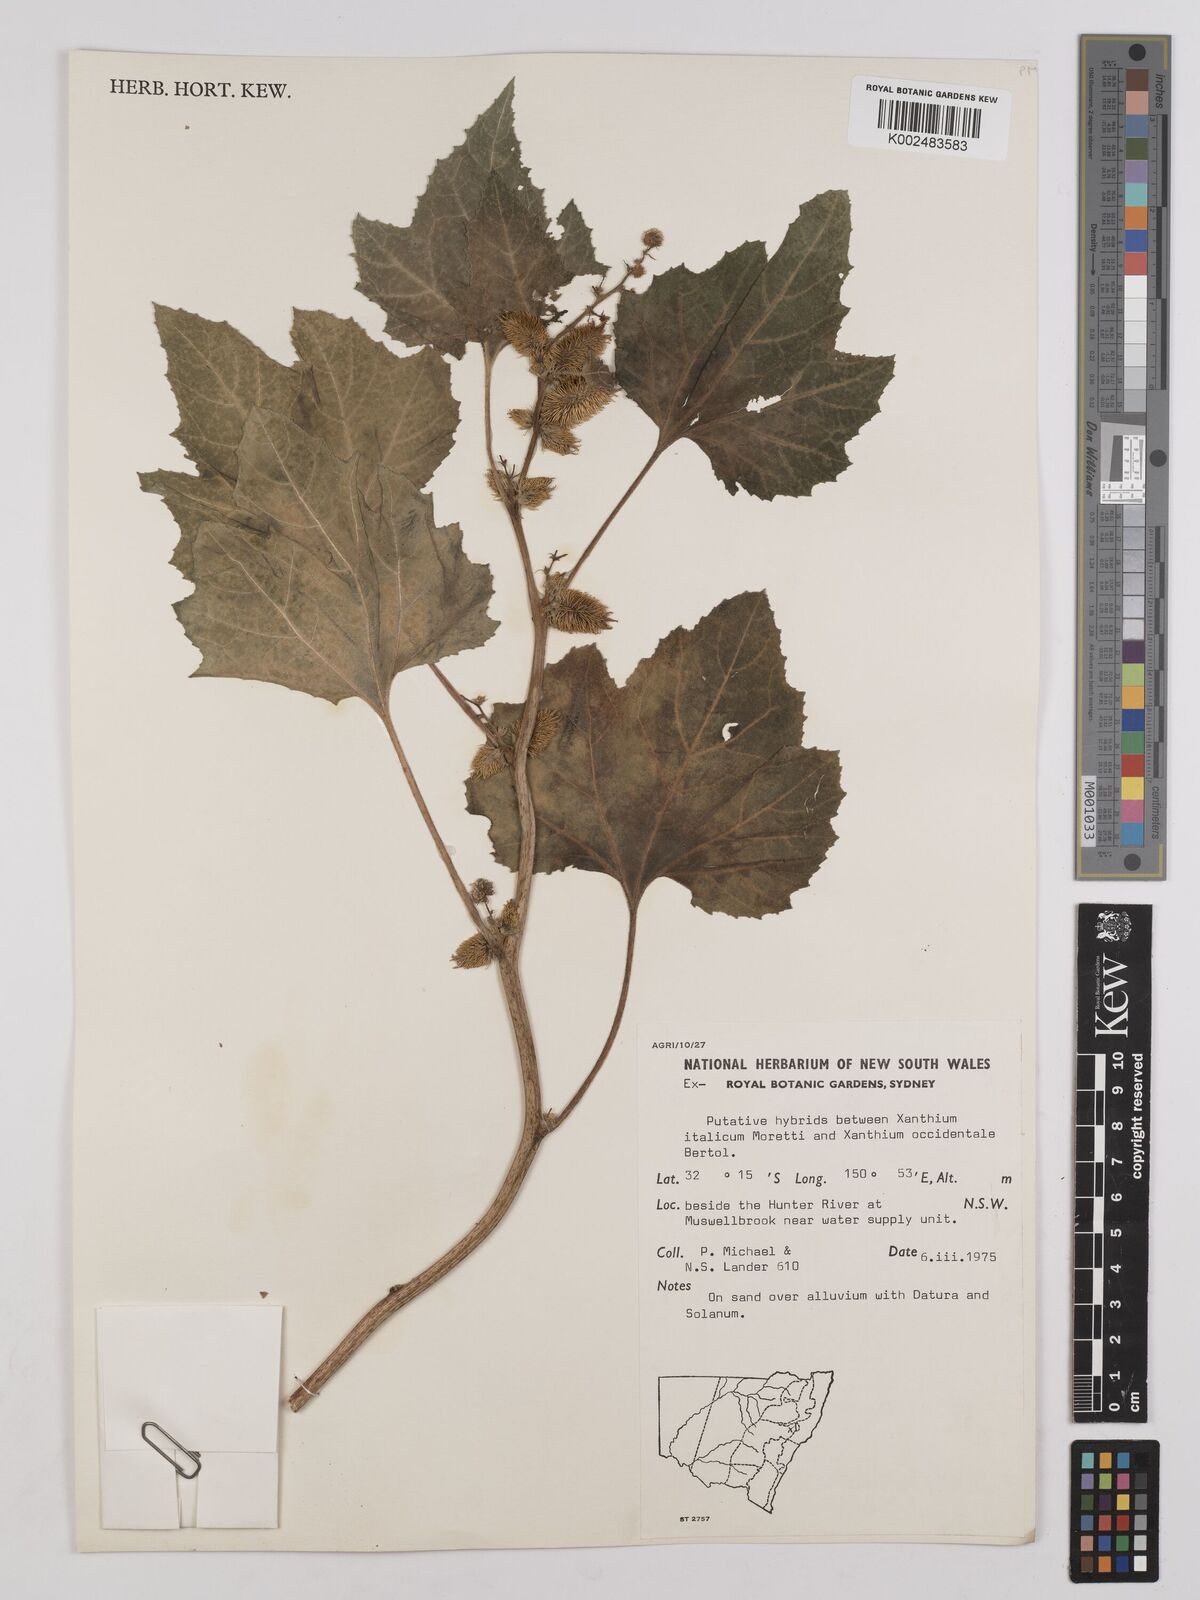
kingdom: Plantae
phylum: Tracheophyta
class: Magnoliopsida
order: Asterales
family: Asteraceae
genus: Xanthium
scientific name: Xanthium
